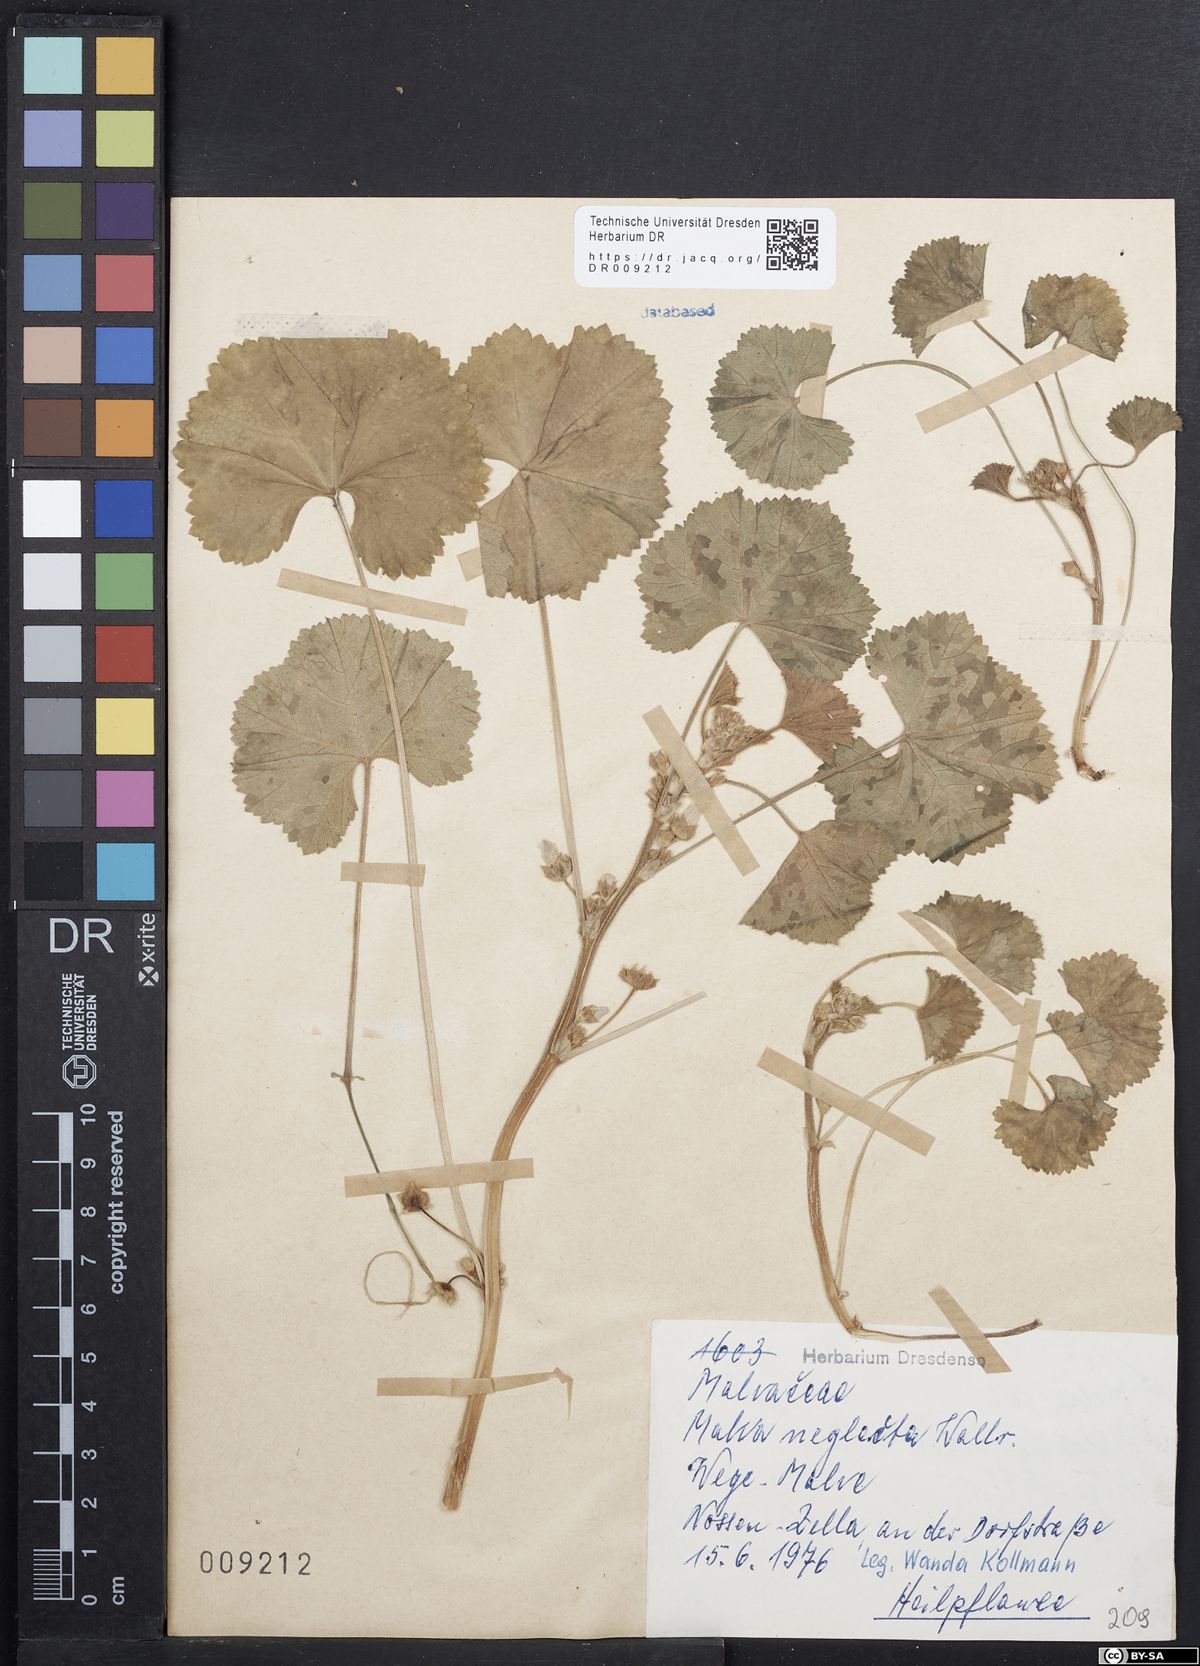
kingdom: Plantae
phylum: Tracheophyta
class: Magnoliopsida
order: Malvales
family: Malvaceae
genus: Malva
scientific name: Malva neglecta
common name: Common mallow
